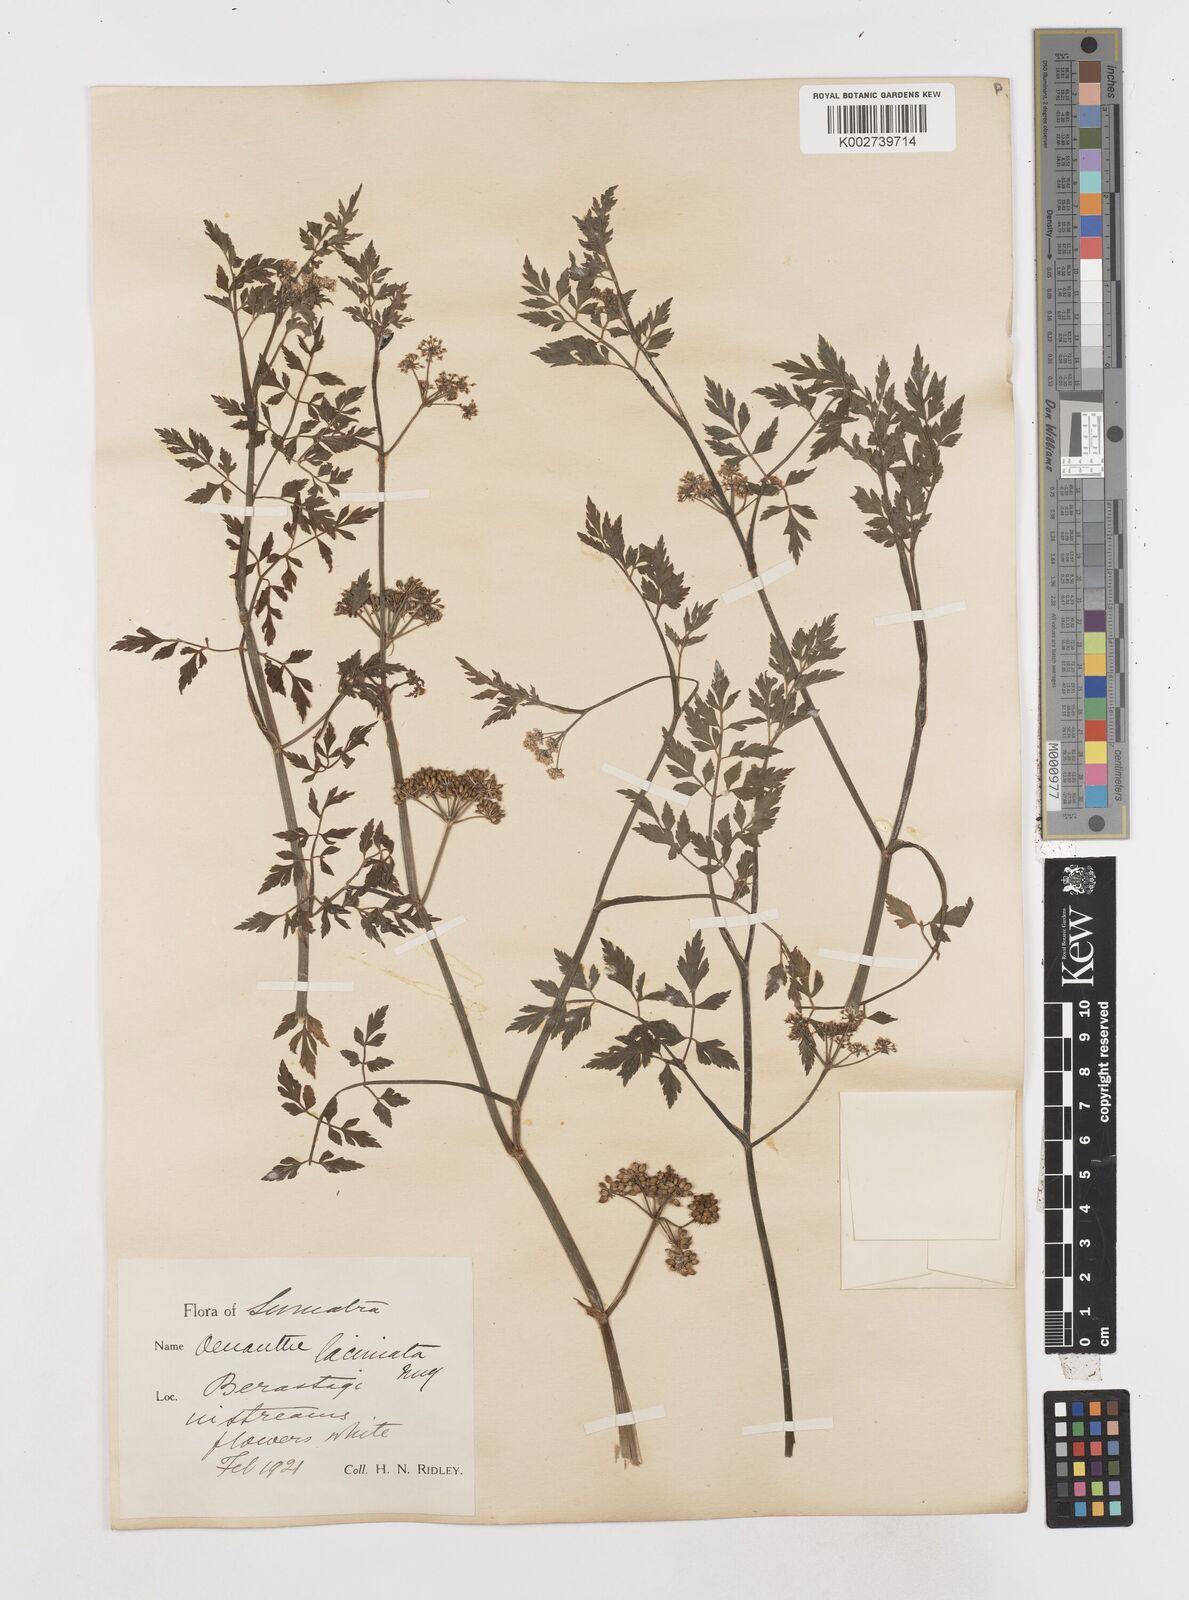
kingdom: Plantae
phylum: Tracheophyta
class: Magnoliopsida
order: Apiales
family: Apiaceae
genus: Oenanthe
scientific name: Oenanthe javanica
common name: Java water-dropwort
